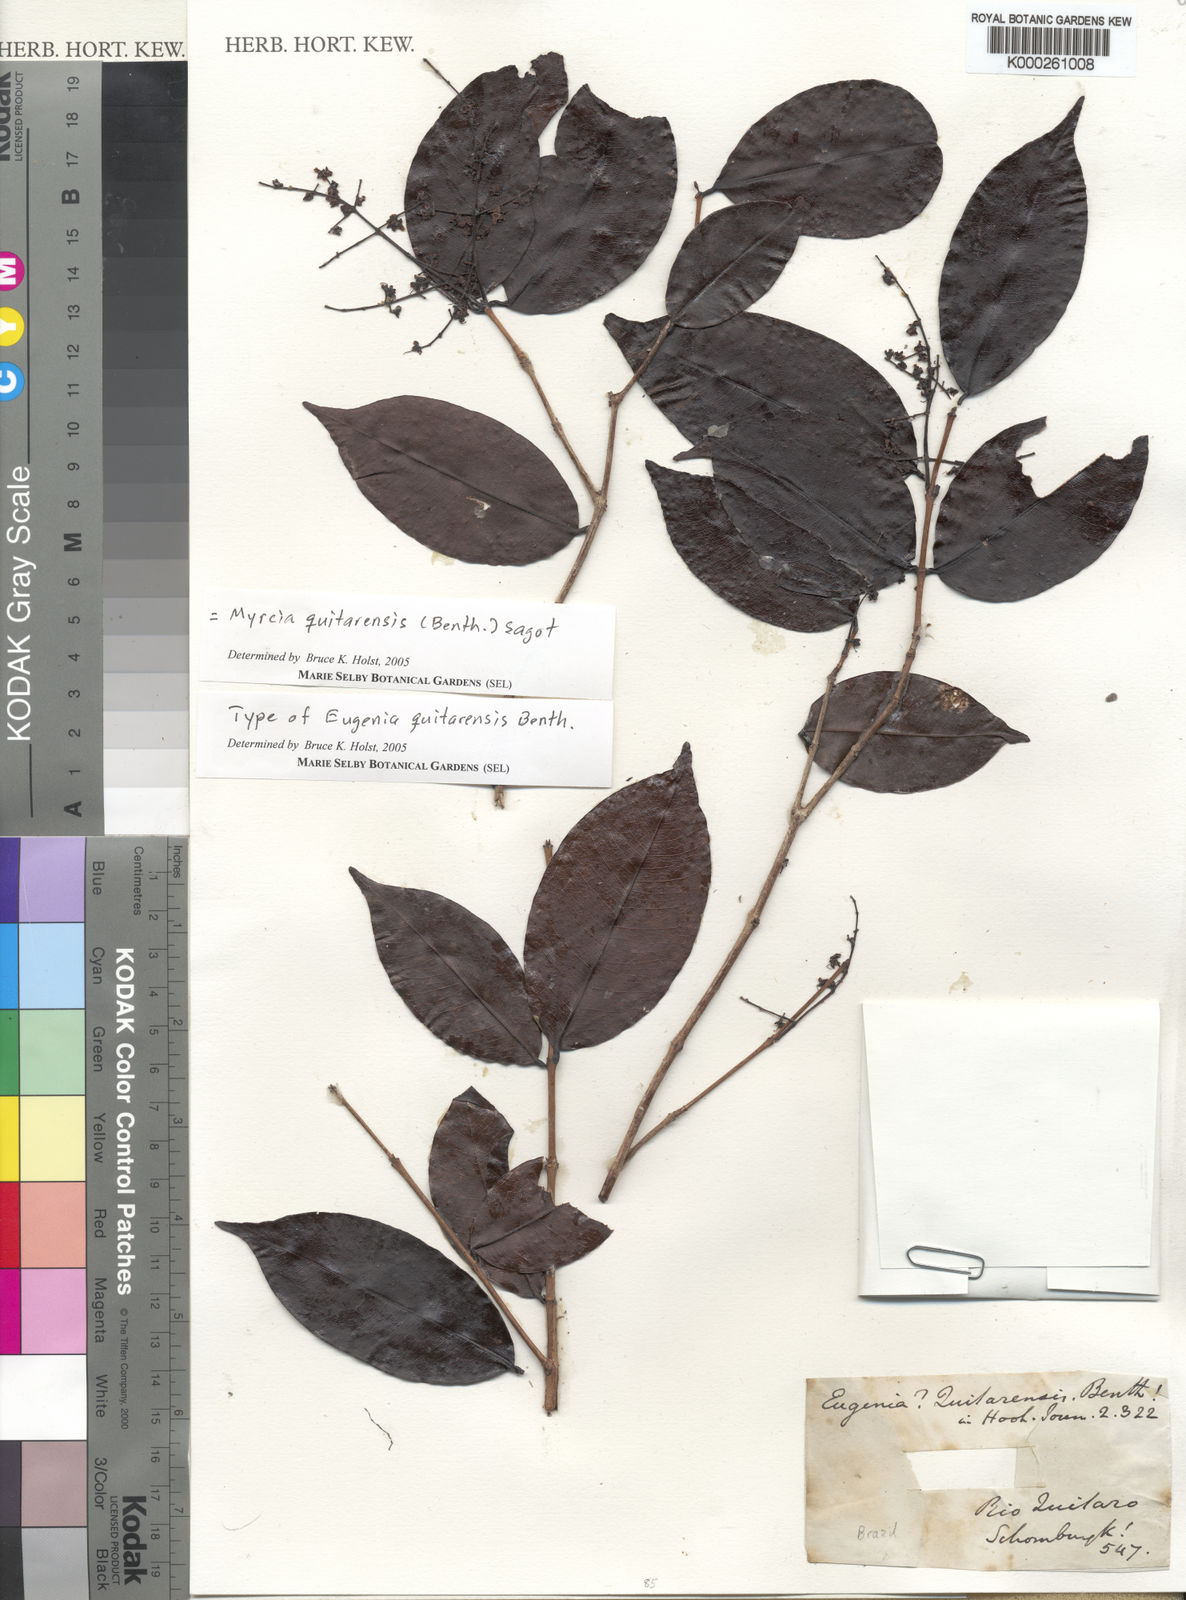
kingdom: Plantae
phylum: Tracheophyta
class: Magnoliopsida
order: Myrtales
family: Myrtaceae
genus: Myrcia
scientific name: Myrcia quitarensis
